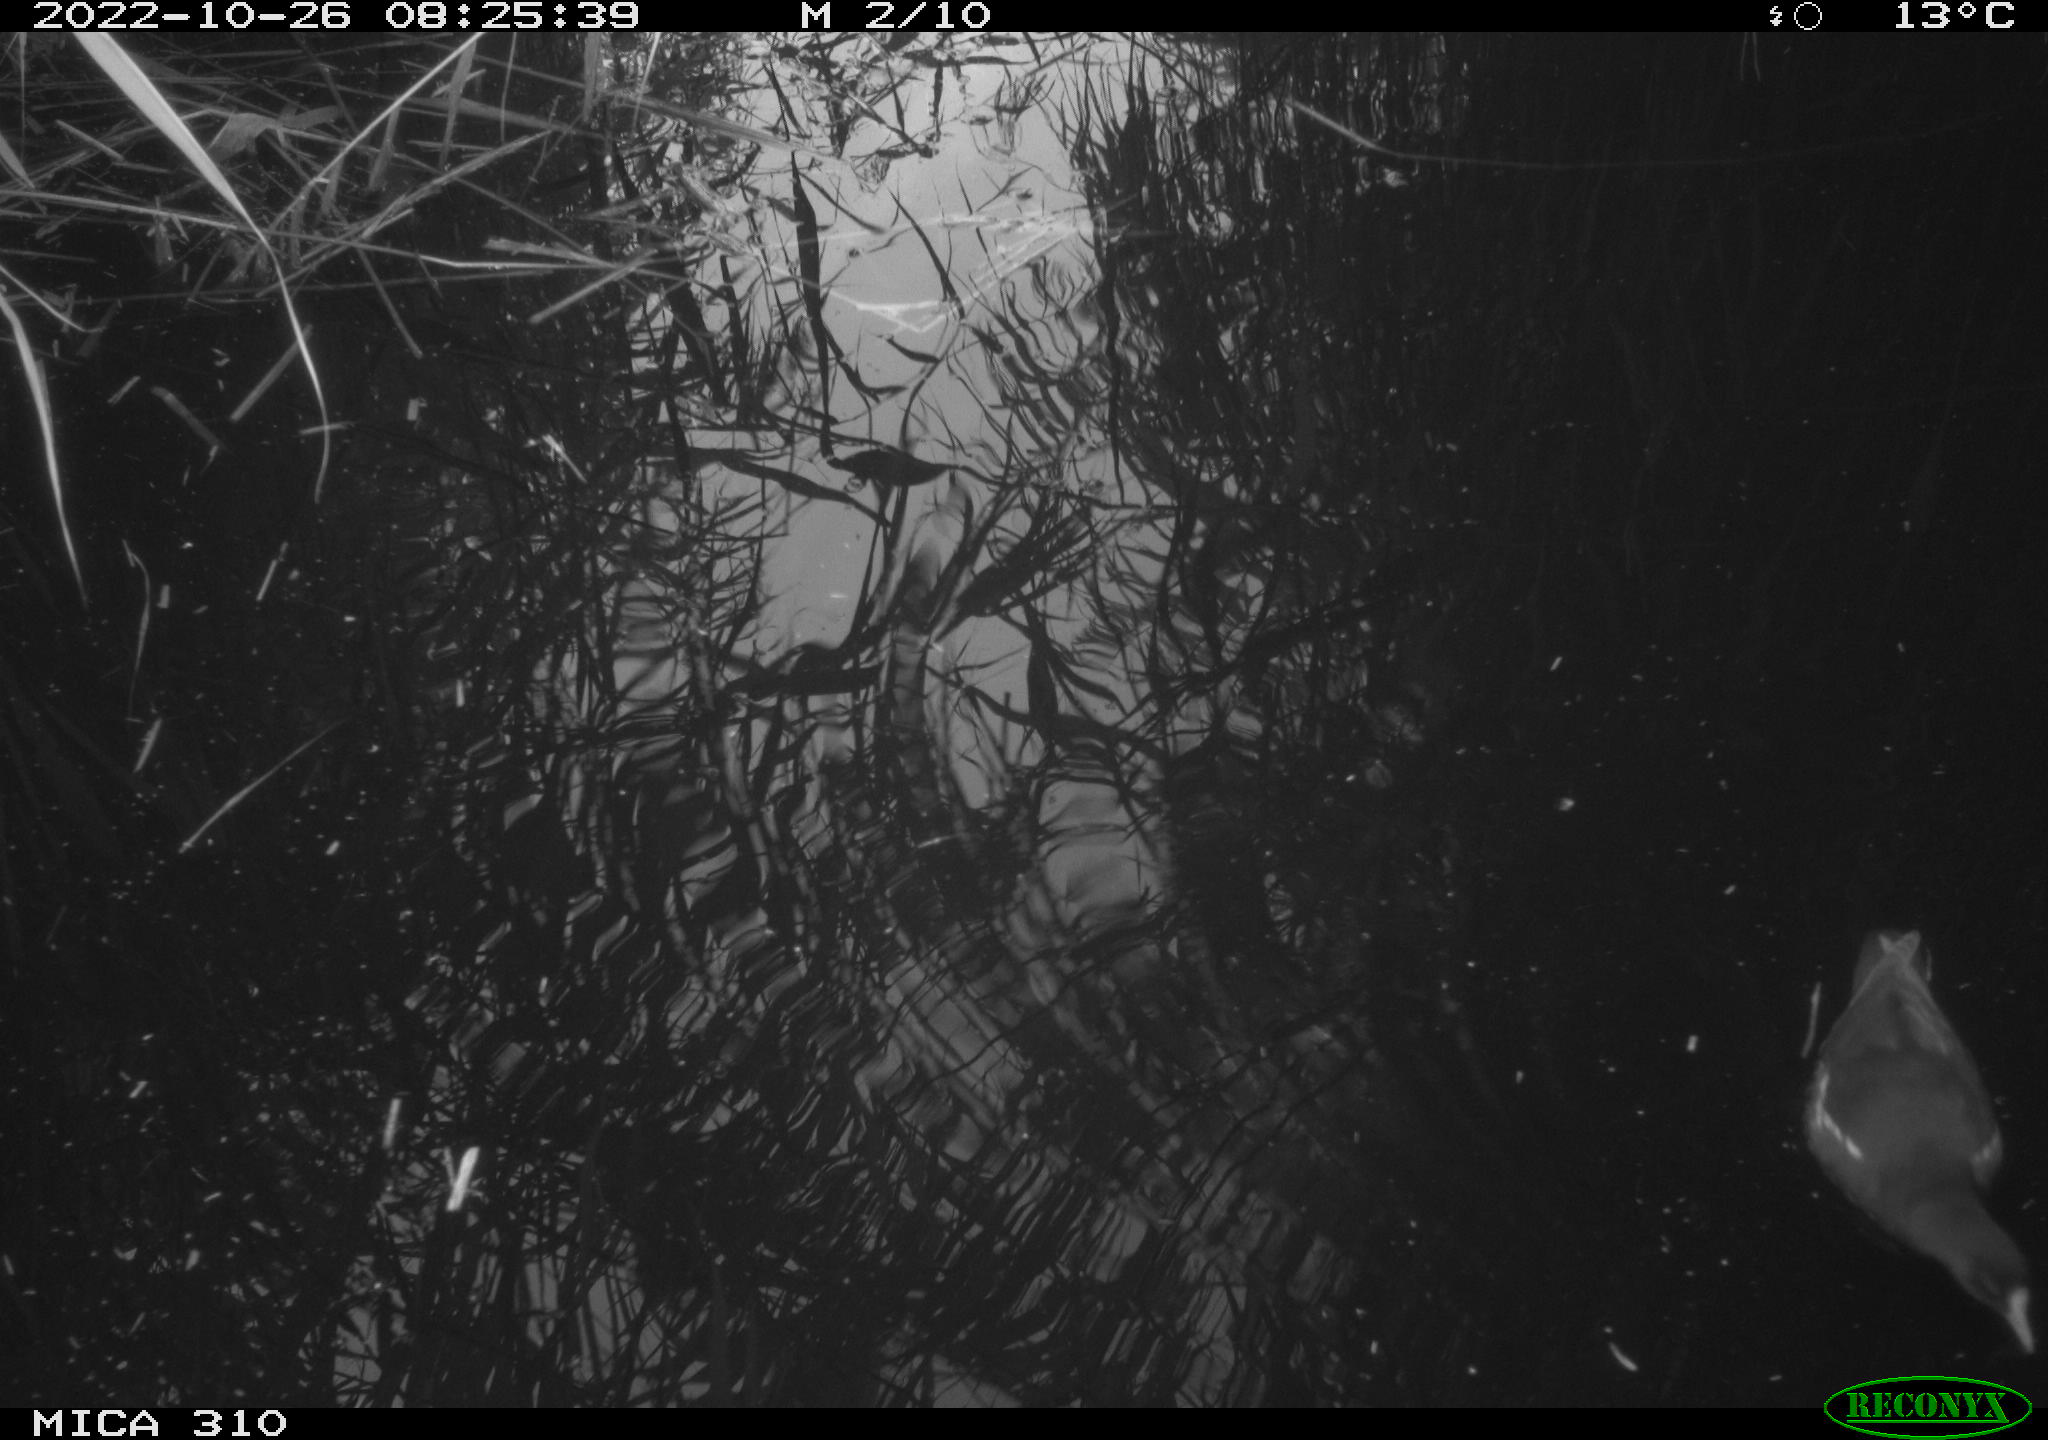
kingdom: Animalia
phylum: Chordata
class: Aves
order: Anseriformes
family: Anatidae
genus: Anas
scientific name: Anas
